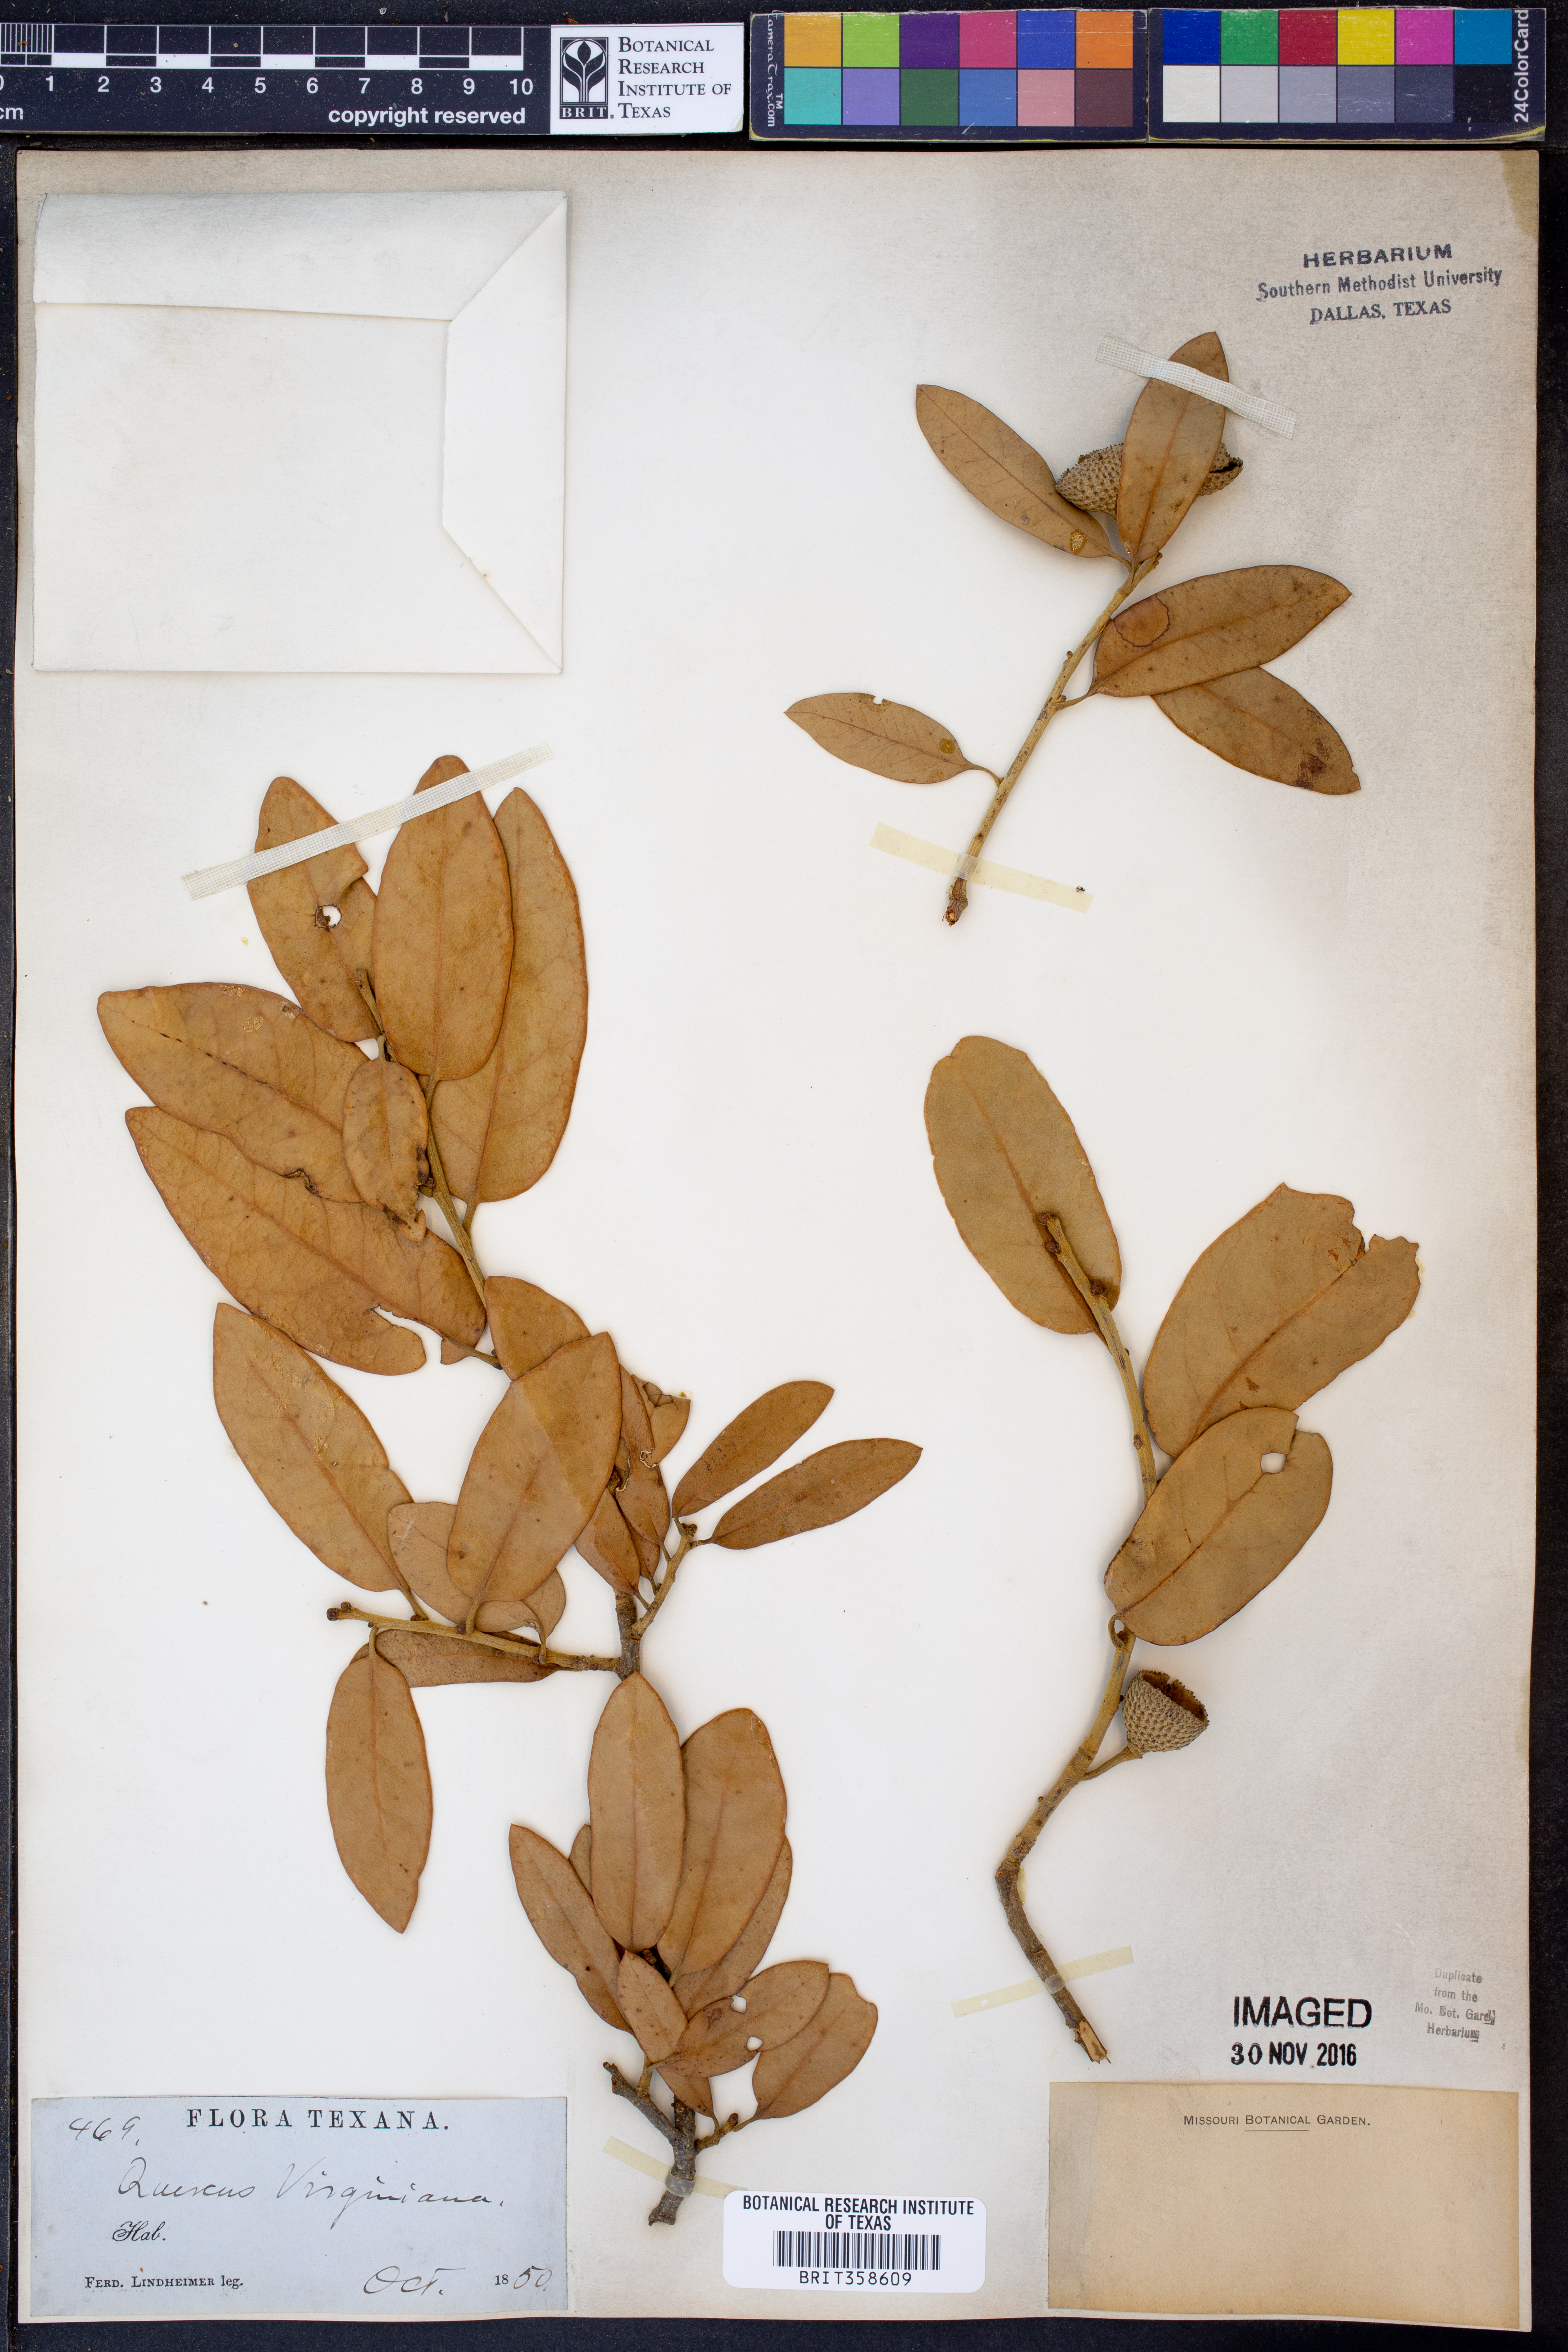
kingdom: Plantae
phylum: Tracheophyta
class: Magnoliopsida
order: Fagales
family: Fagaceae
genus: Quercus
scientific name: Quercus virginiana
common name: Southern live oak
